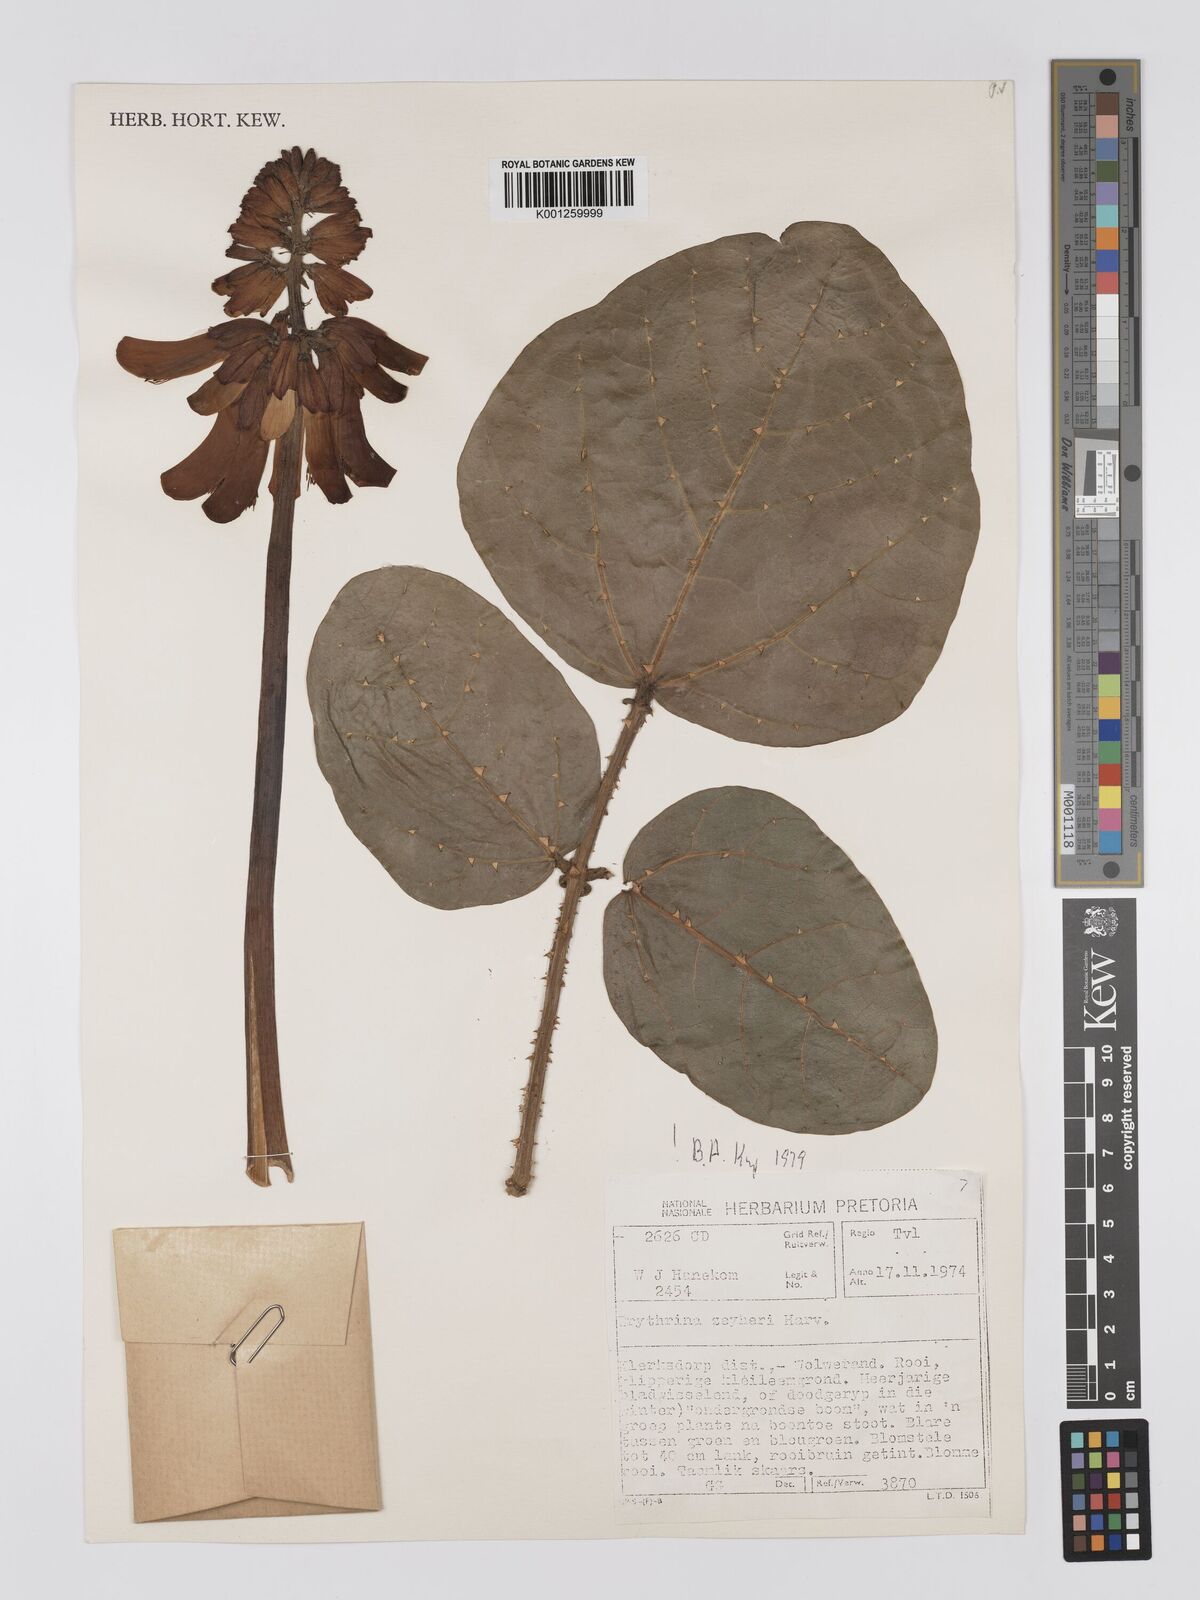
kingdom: Plantae
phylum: Tracheophyta
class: Magnoliopsida
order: Fabales
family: Fabaceae
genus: Erythrina
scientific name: Erythrina zeyheri
